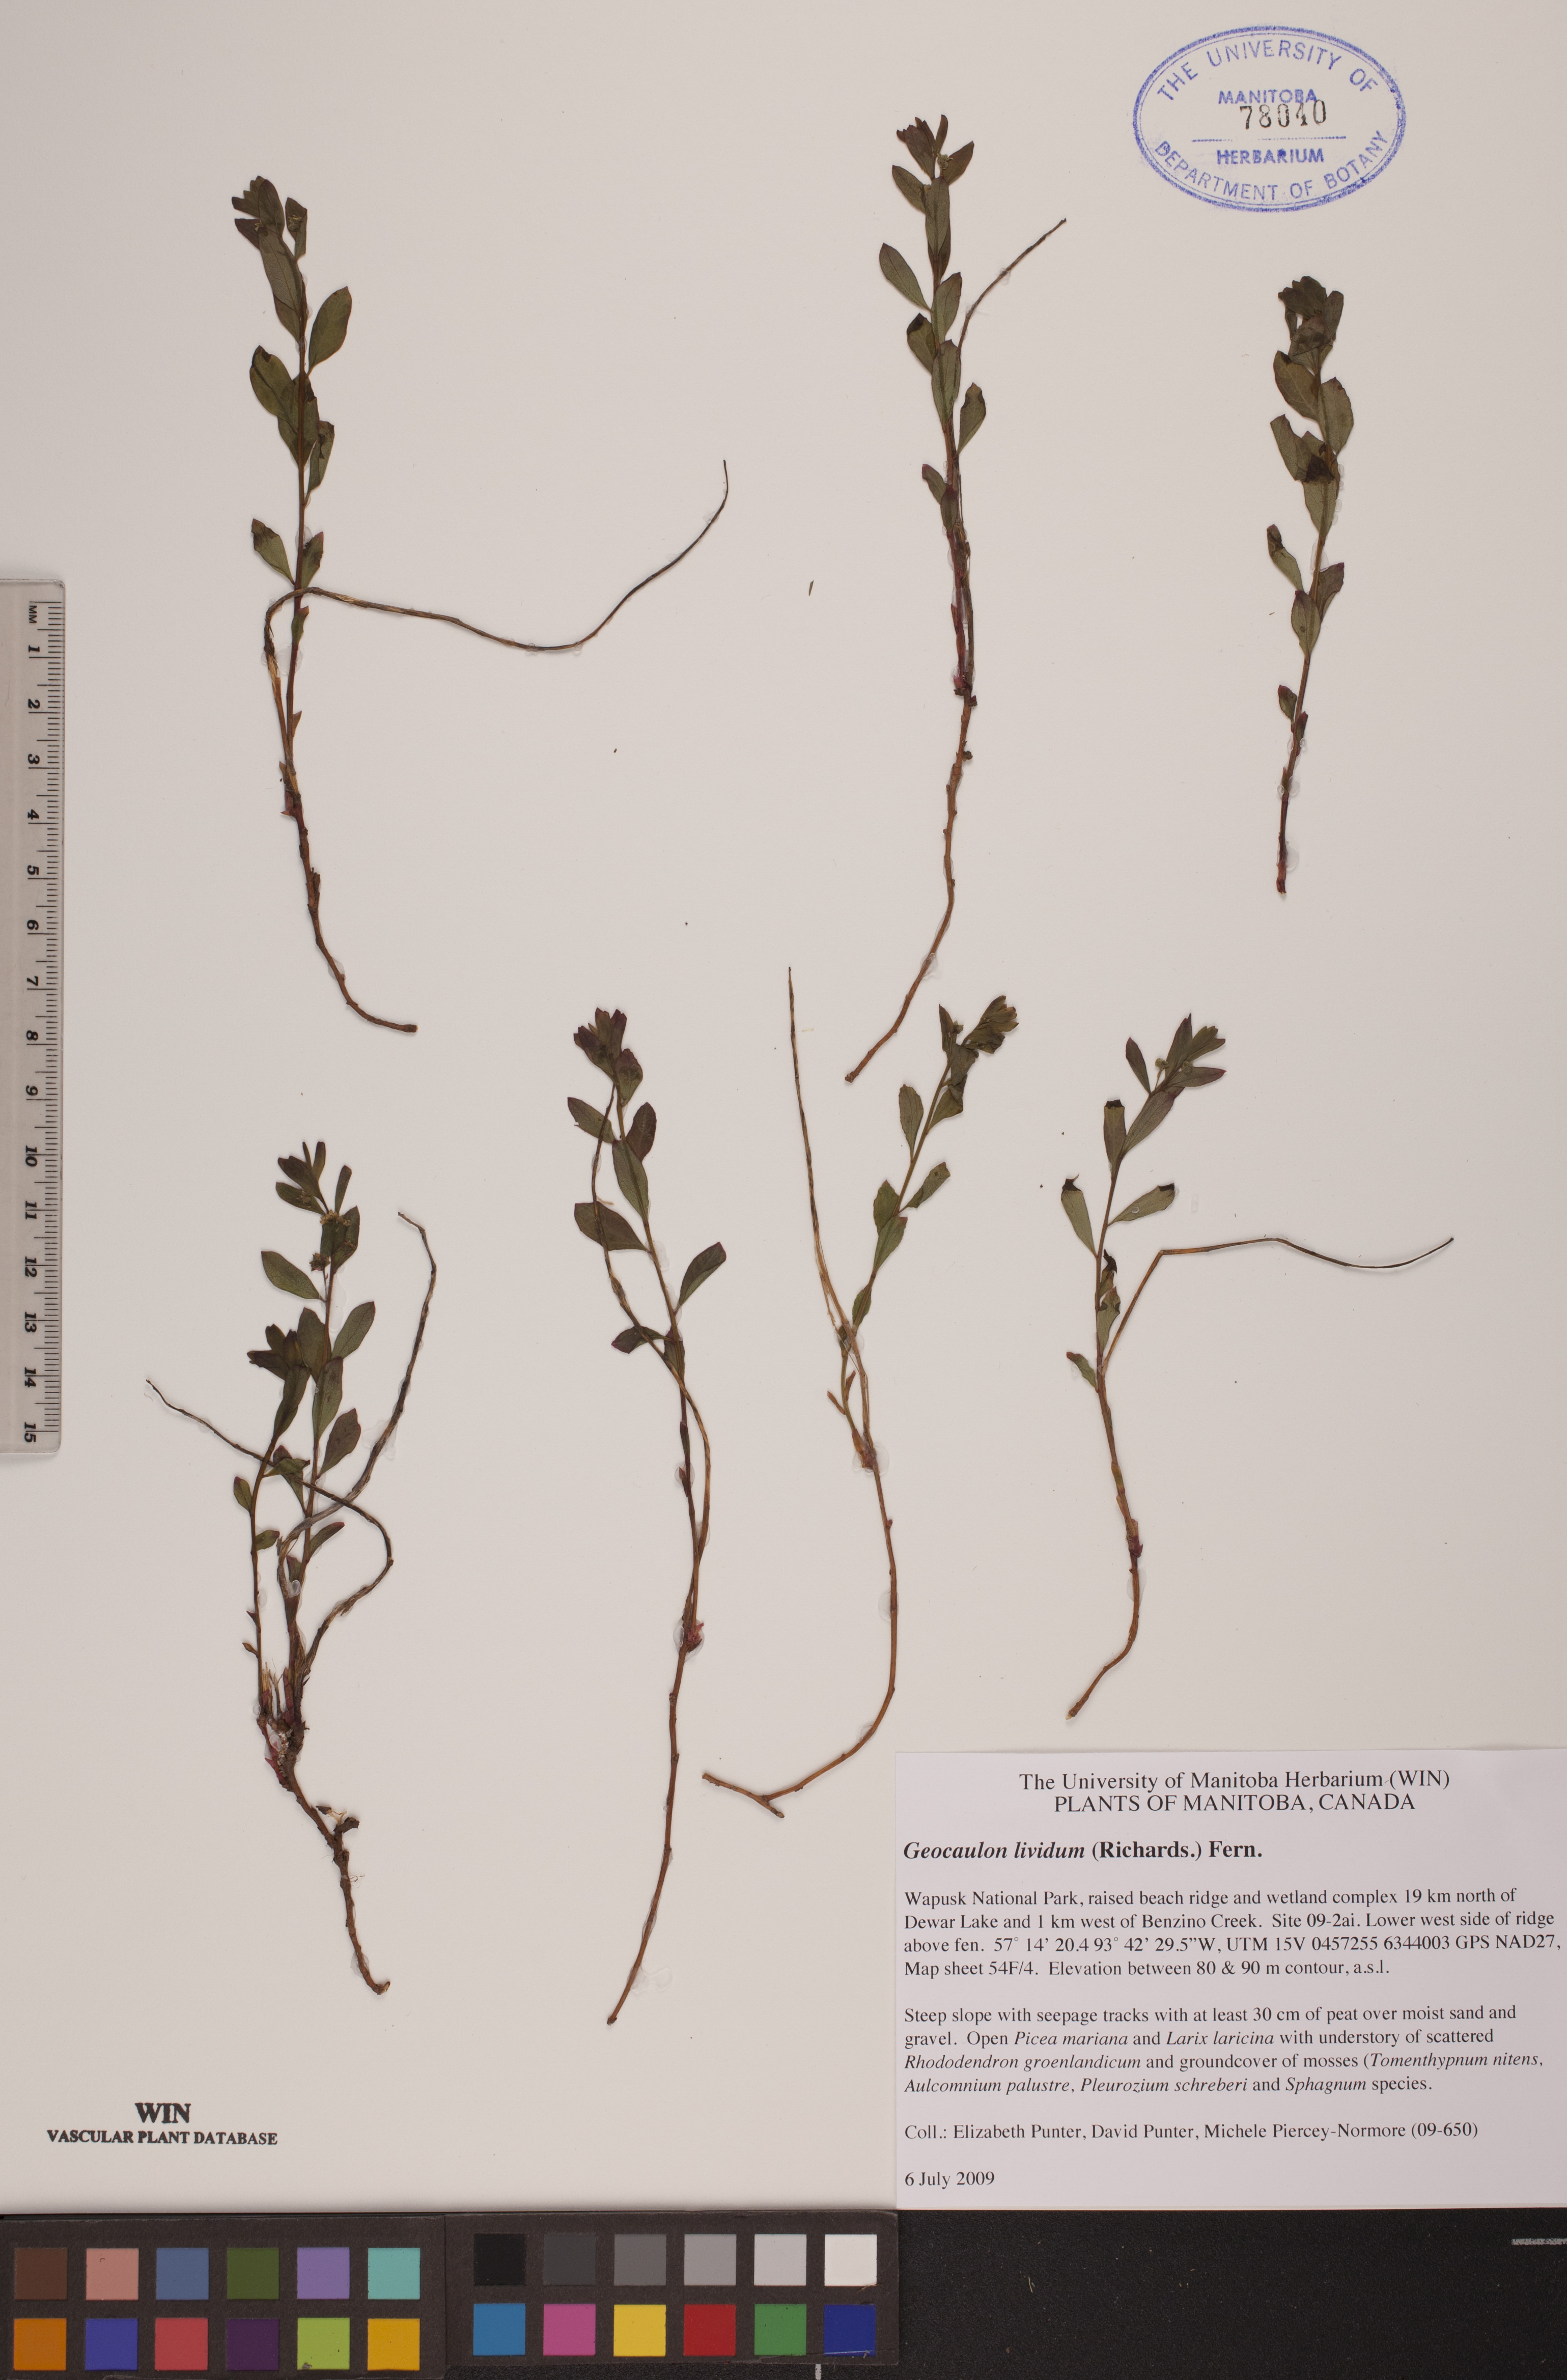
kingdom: Plantae
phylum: Tracheophyta
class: Magnoliopsida
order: Santalales
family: Comandraceae
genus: Geocaulon
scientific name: Geocaulon lividum
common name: Earthberry
